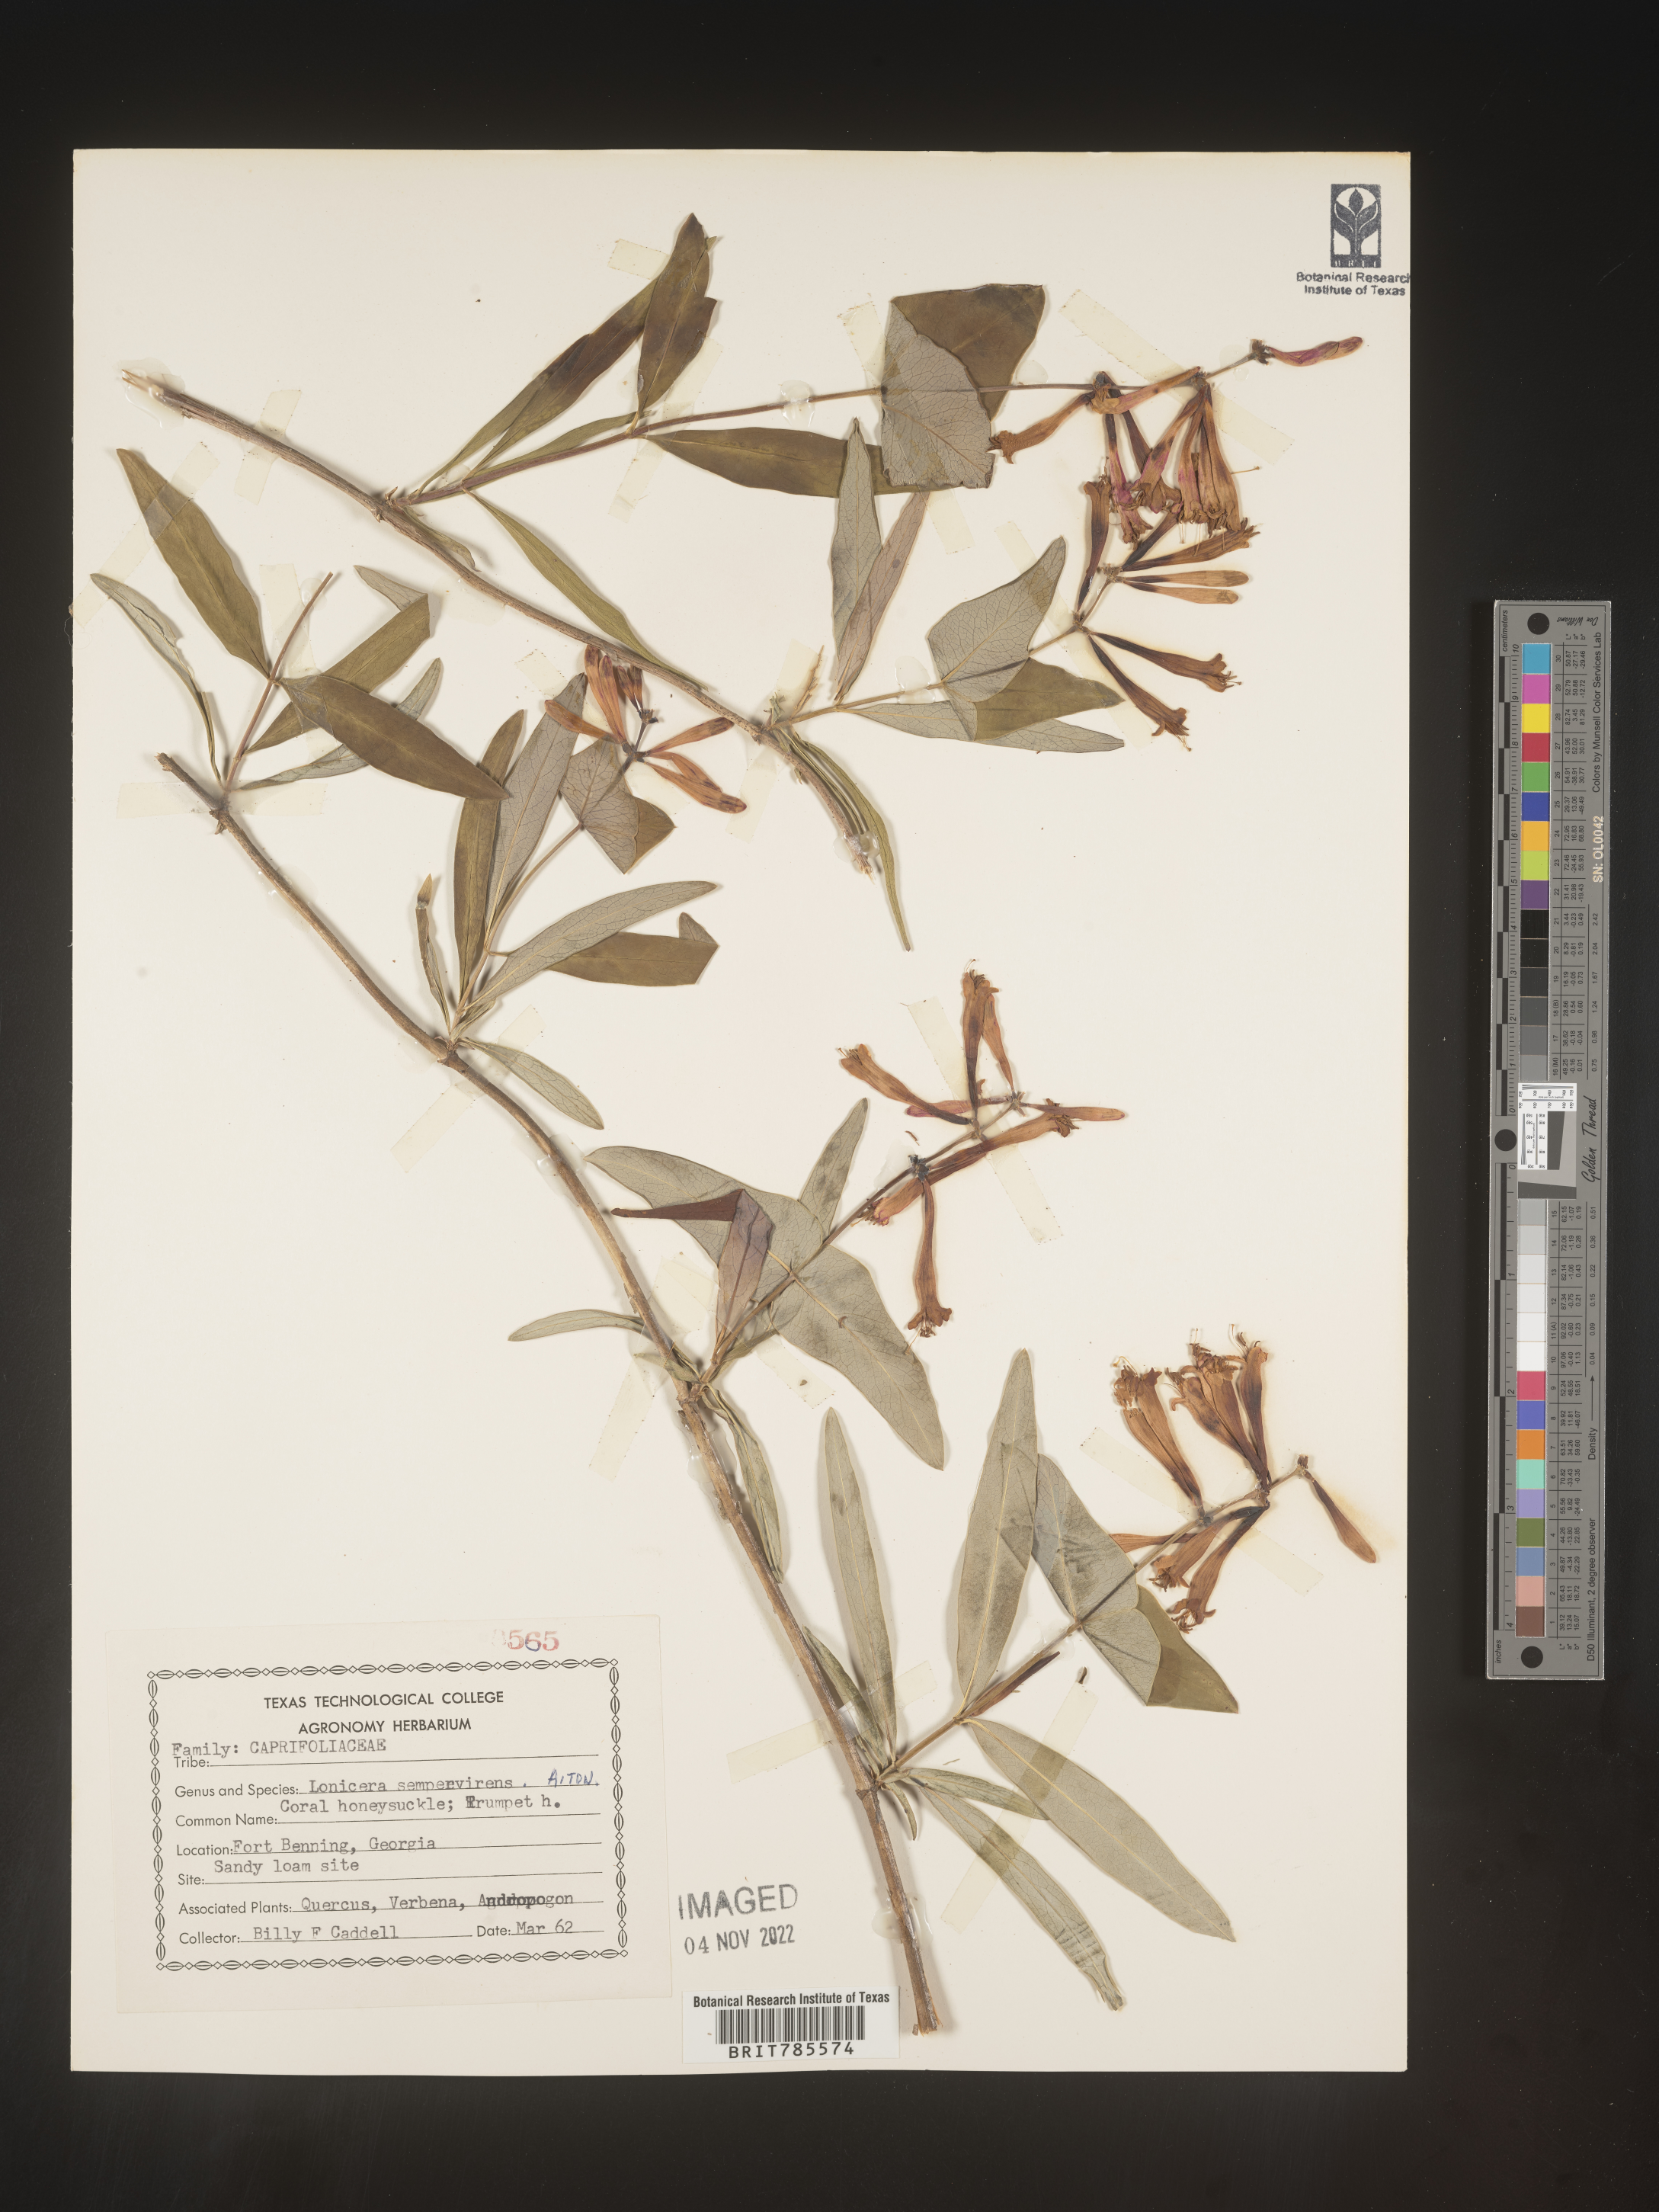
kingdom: Plantae
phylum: Tracheophyta
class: Magnoliopsida
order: Dipsacales
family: Caprifoliaceae
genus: Lonicera
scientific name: Lonicera sempervirens
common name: Coral honeysuckle
